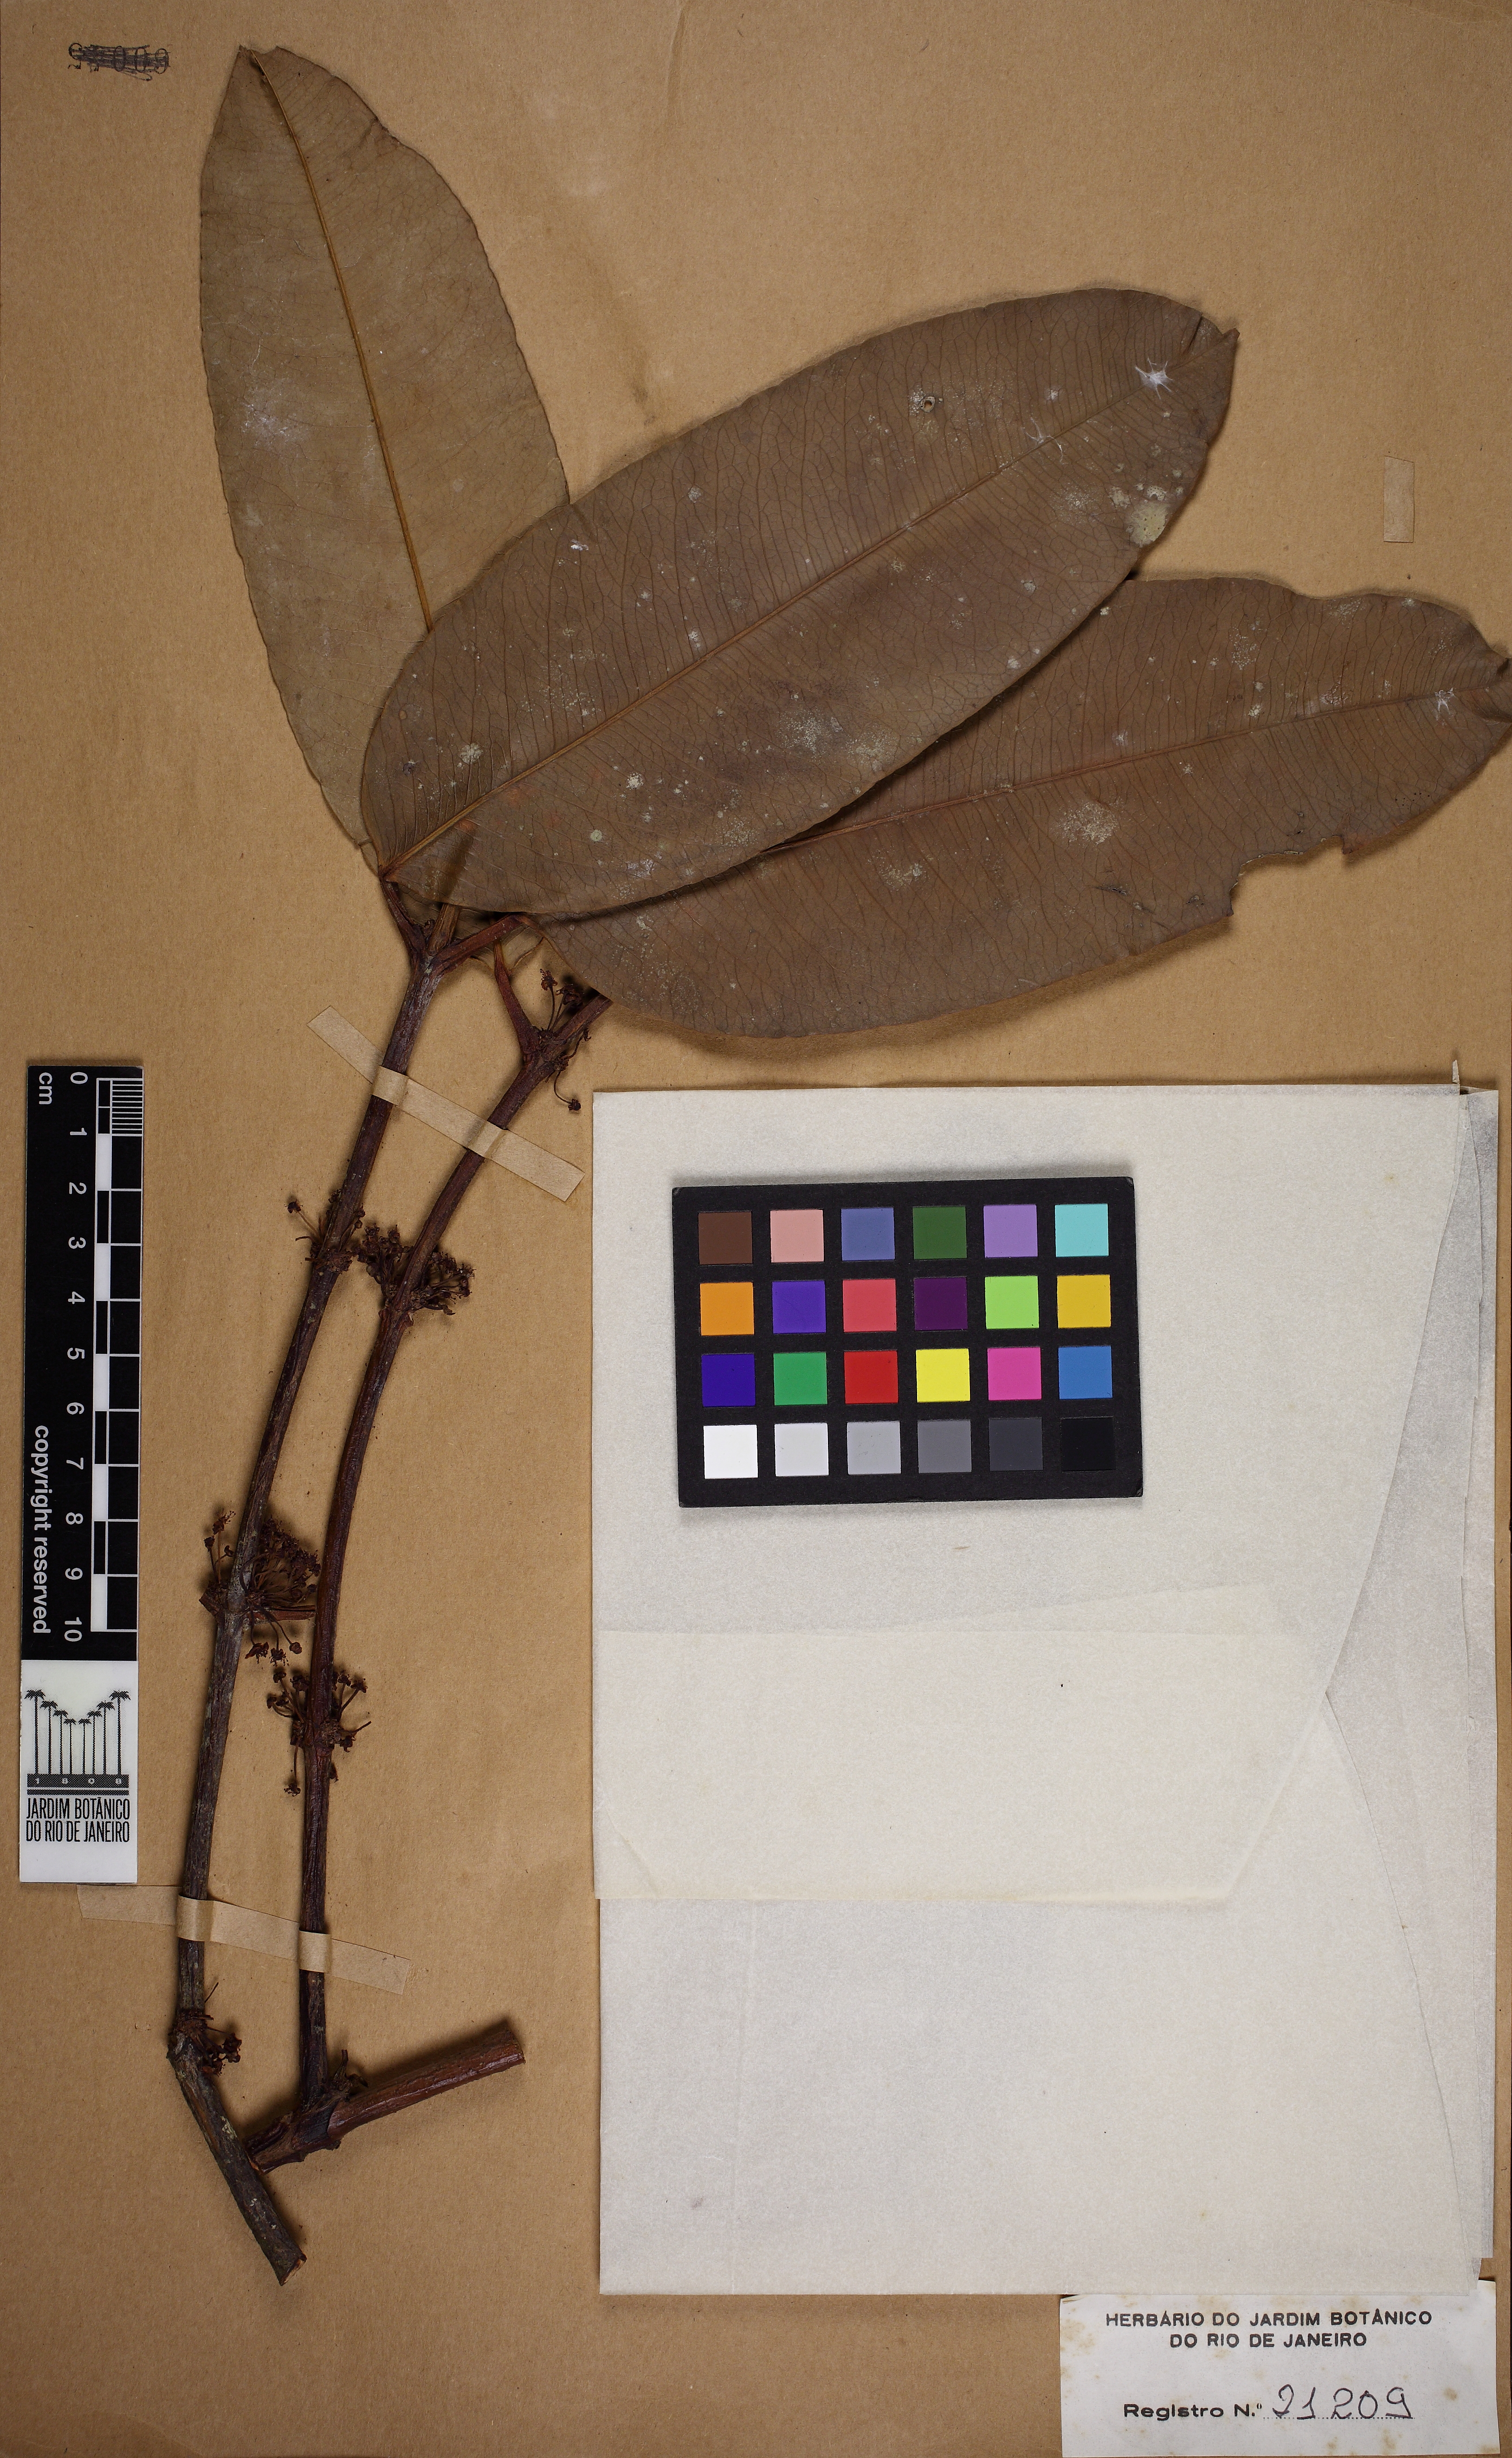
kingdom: Plantae
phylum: Tracheophyta
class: Magnoliopsida
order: Malpighiales
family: Clusiaceae
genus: Garcinia
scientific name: Garcinia fluviatilis
